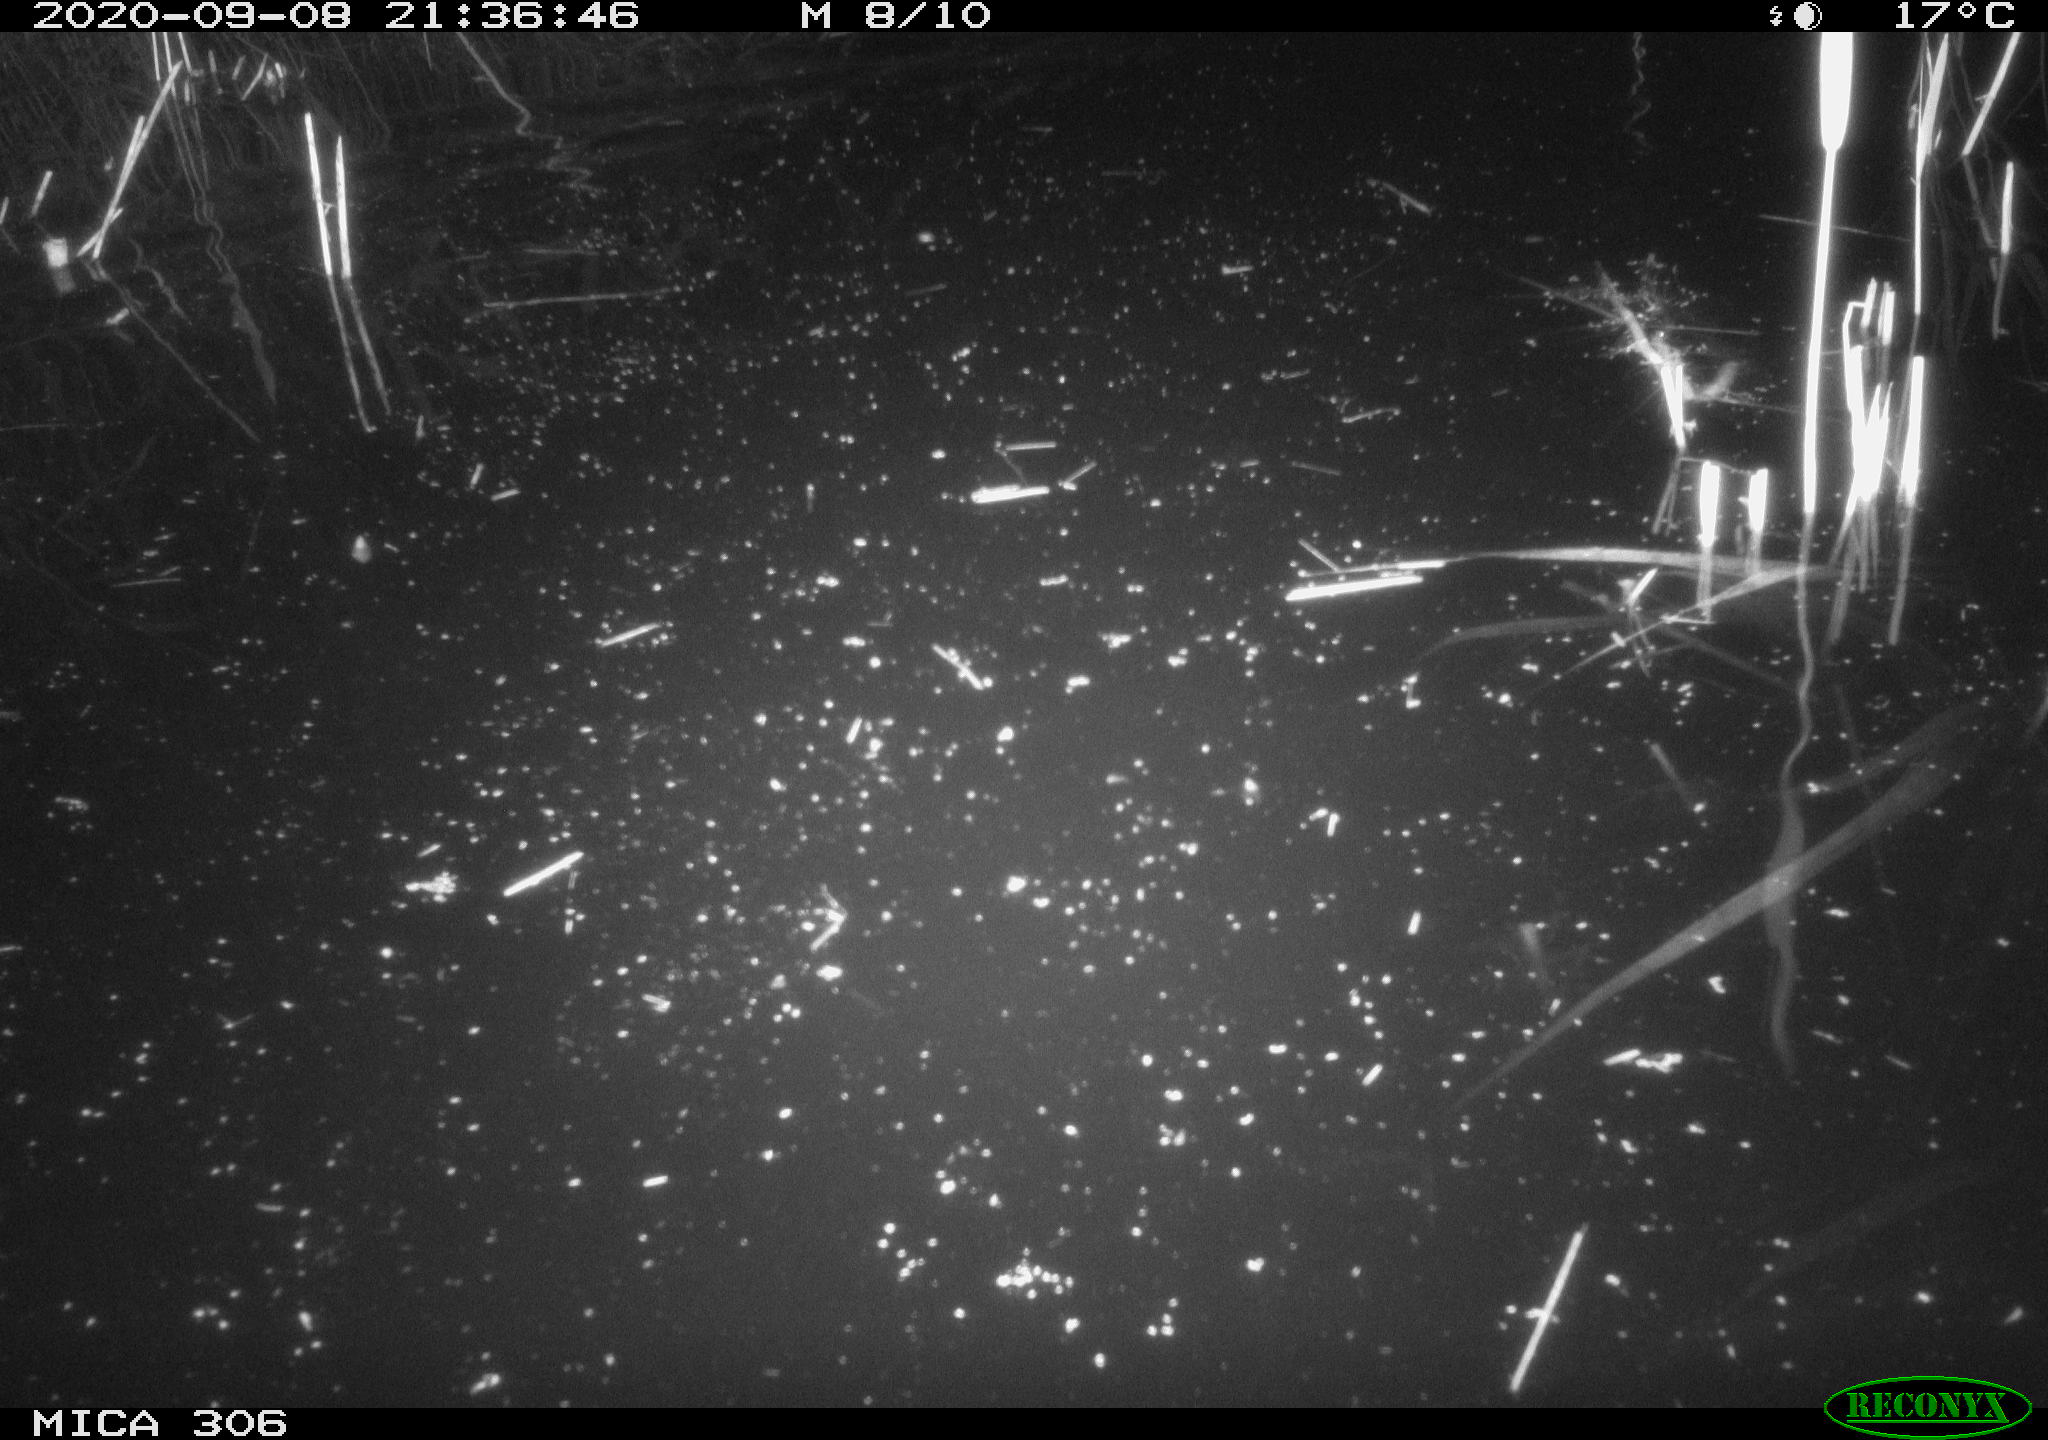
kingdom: Animalia
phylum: Chordata
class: Mammalia
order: Rodentia
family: Muridae
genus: Rattus
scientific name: Rattus norvegicus
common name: Brown rat
